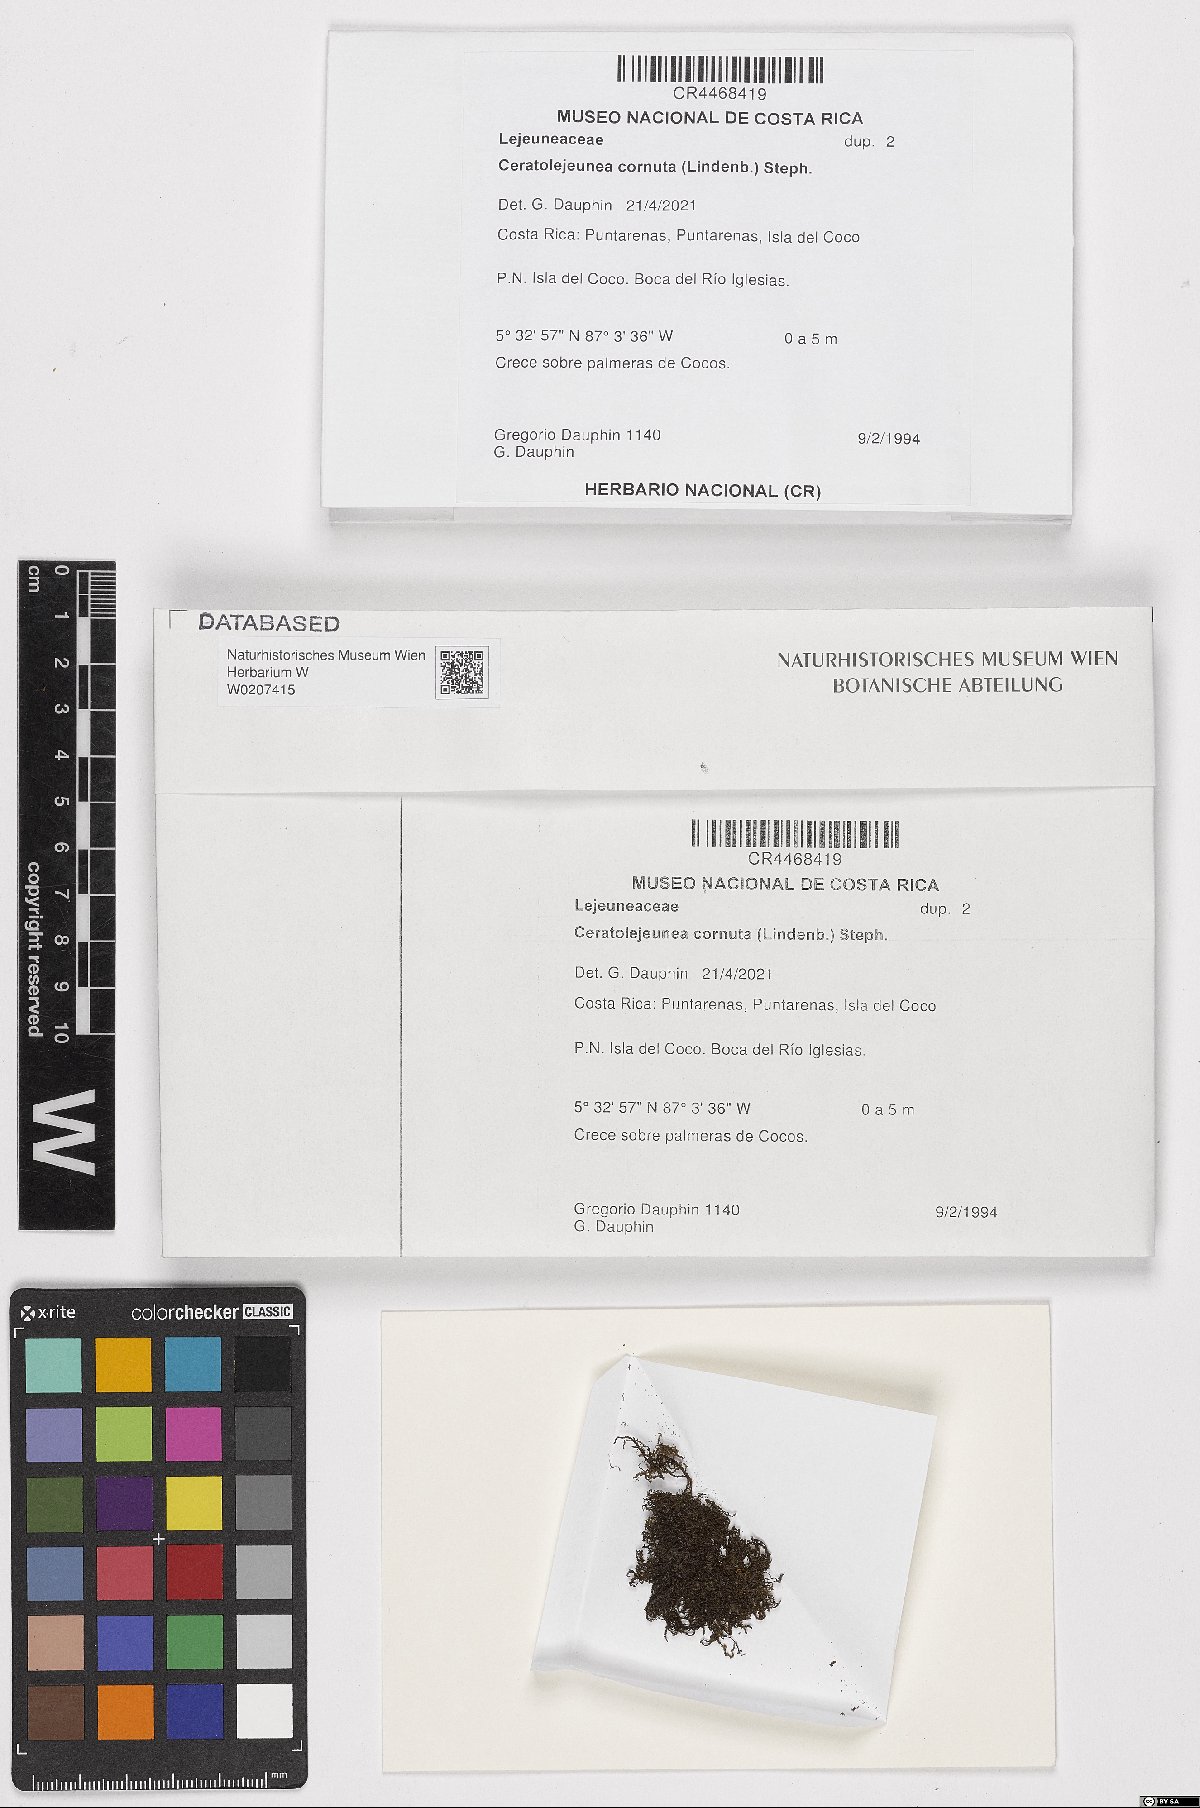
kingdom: Plantae
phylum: Marchantiophyta
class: Jungermanniopsida
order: Porellales
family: Lejeuneaceae
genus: Ceratolejeunea
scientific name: Ceratolejeunea cornuta
